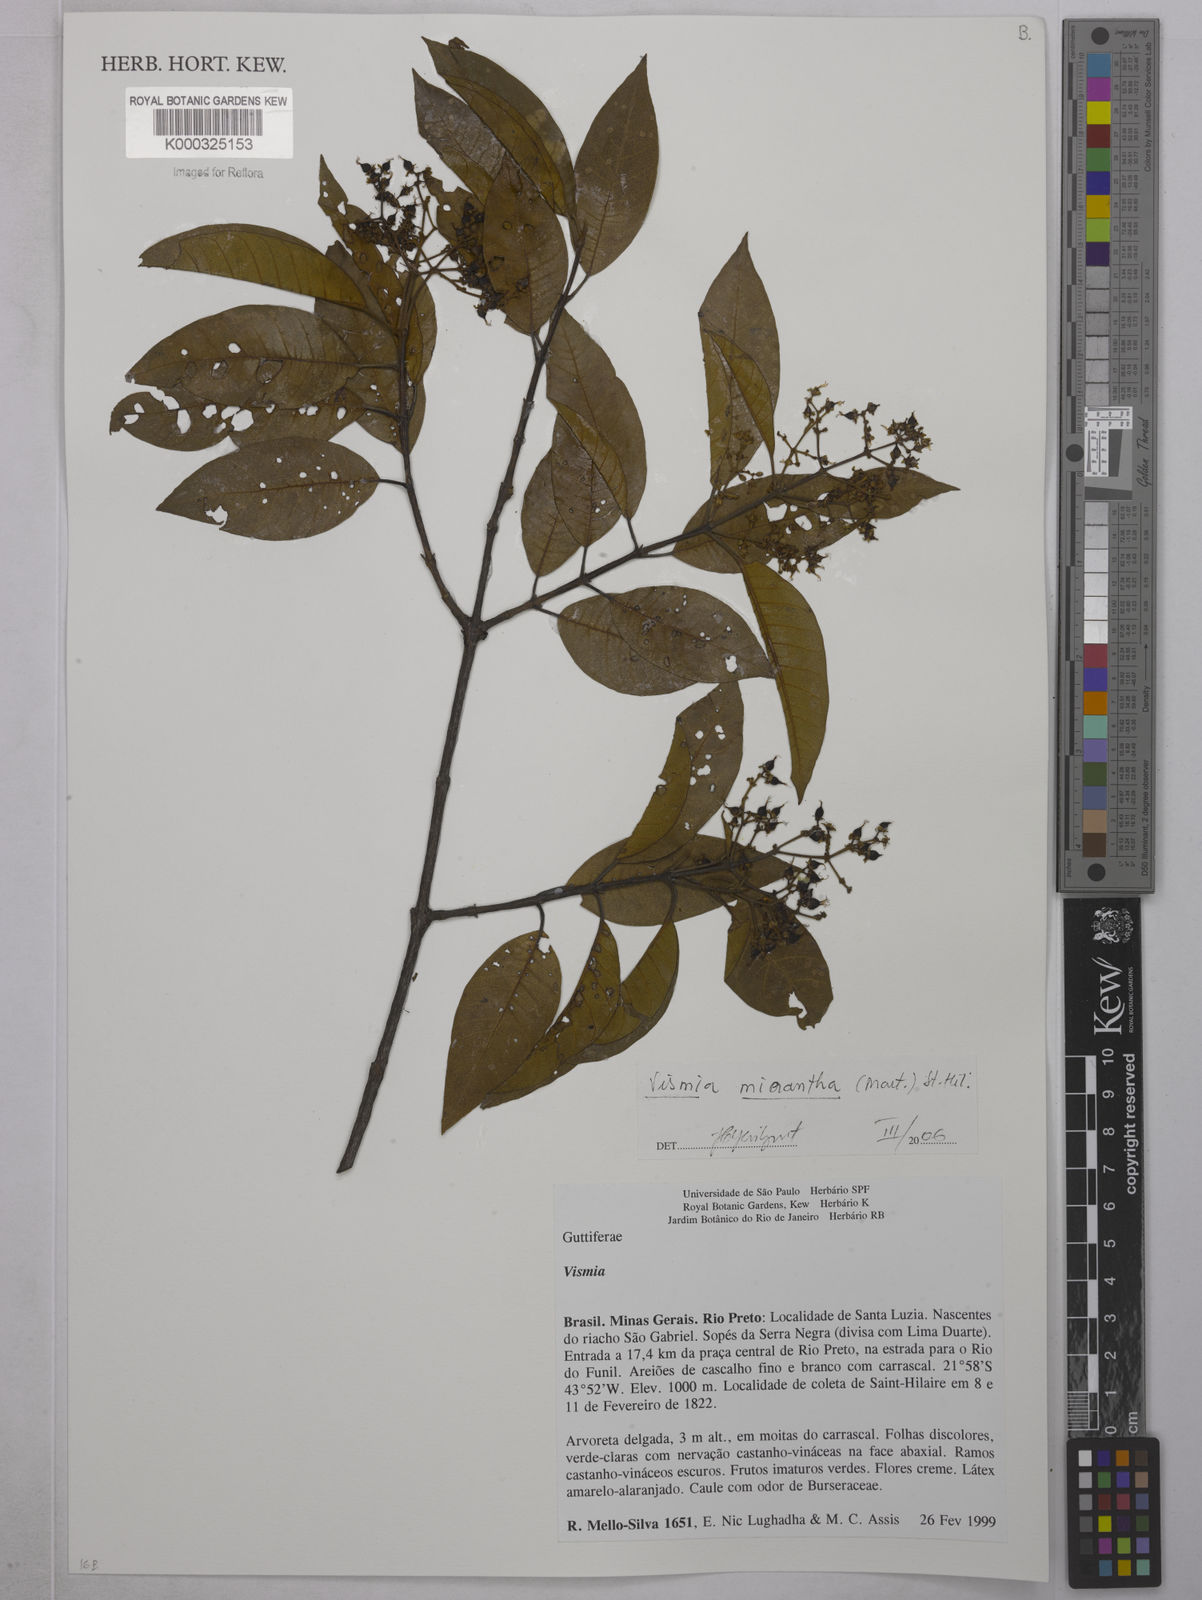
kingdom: Plantae
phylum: Tracheophyta
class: Magnoliopsida
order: Malpighiales
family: Hypericaceae
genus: Vismia
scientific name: Vismia micrantha
